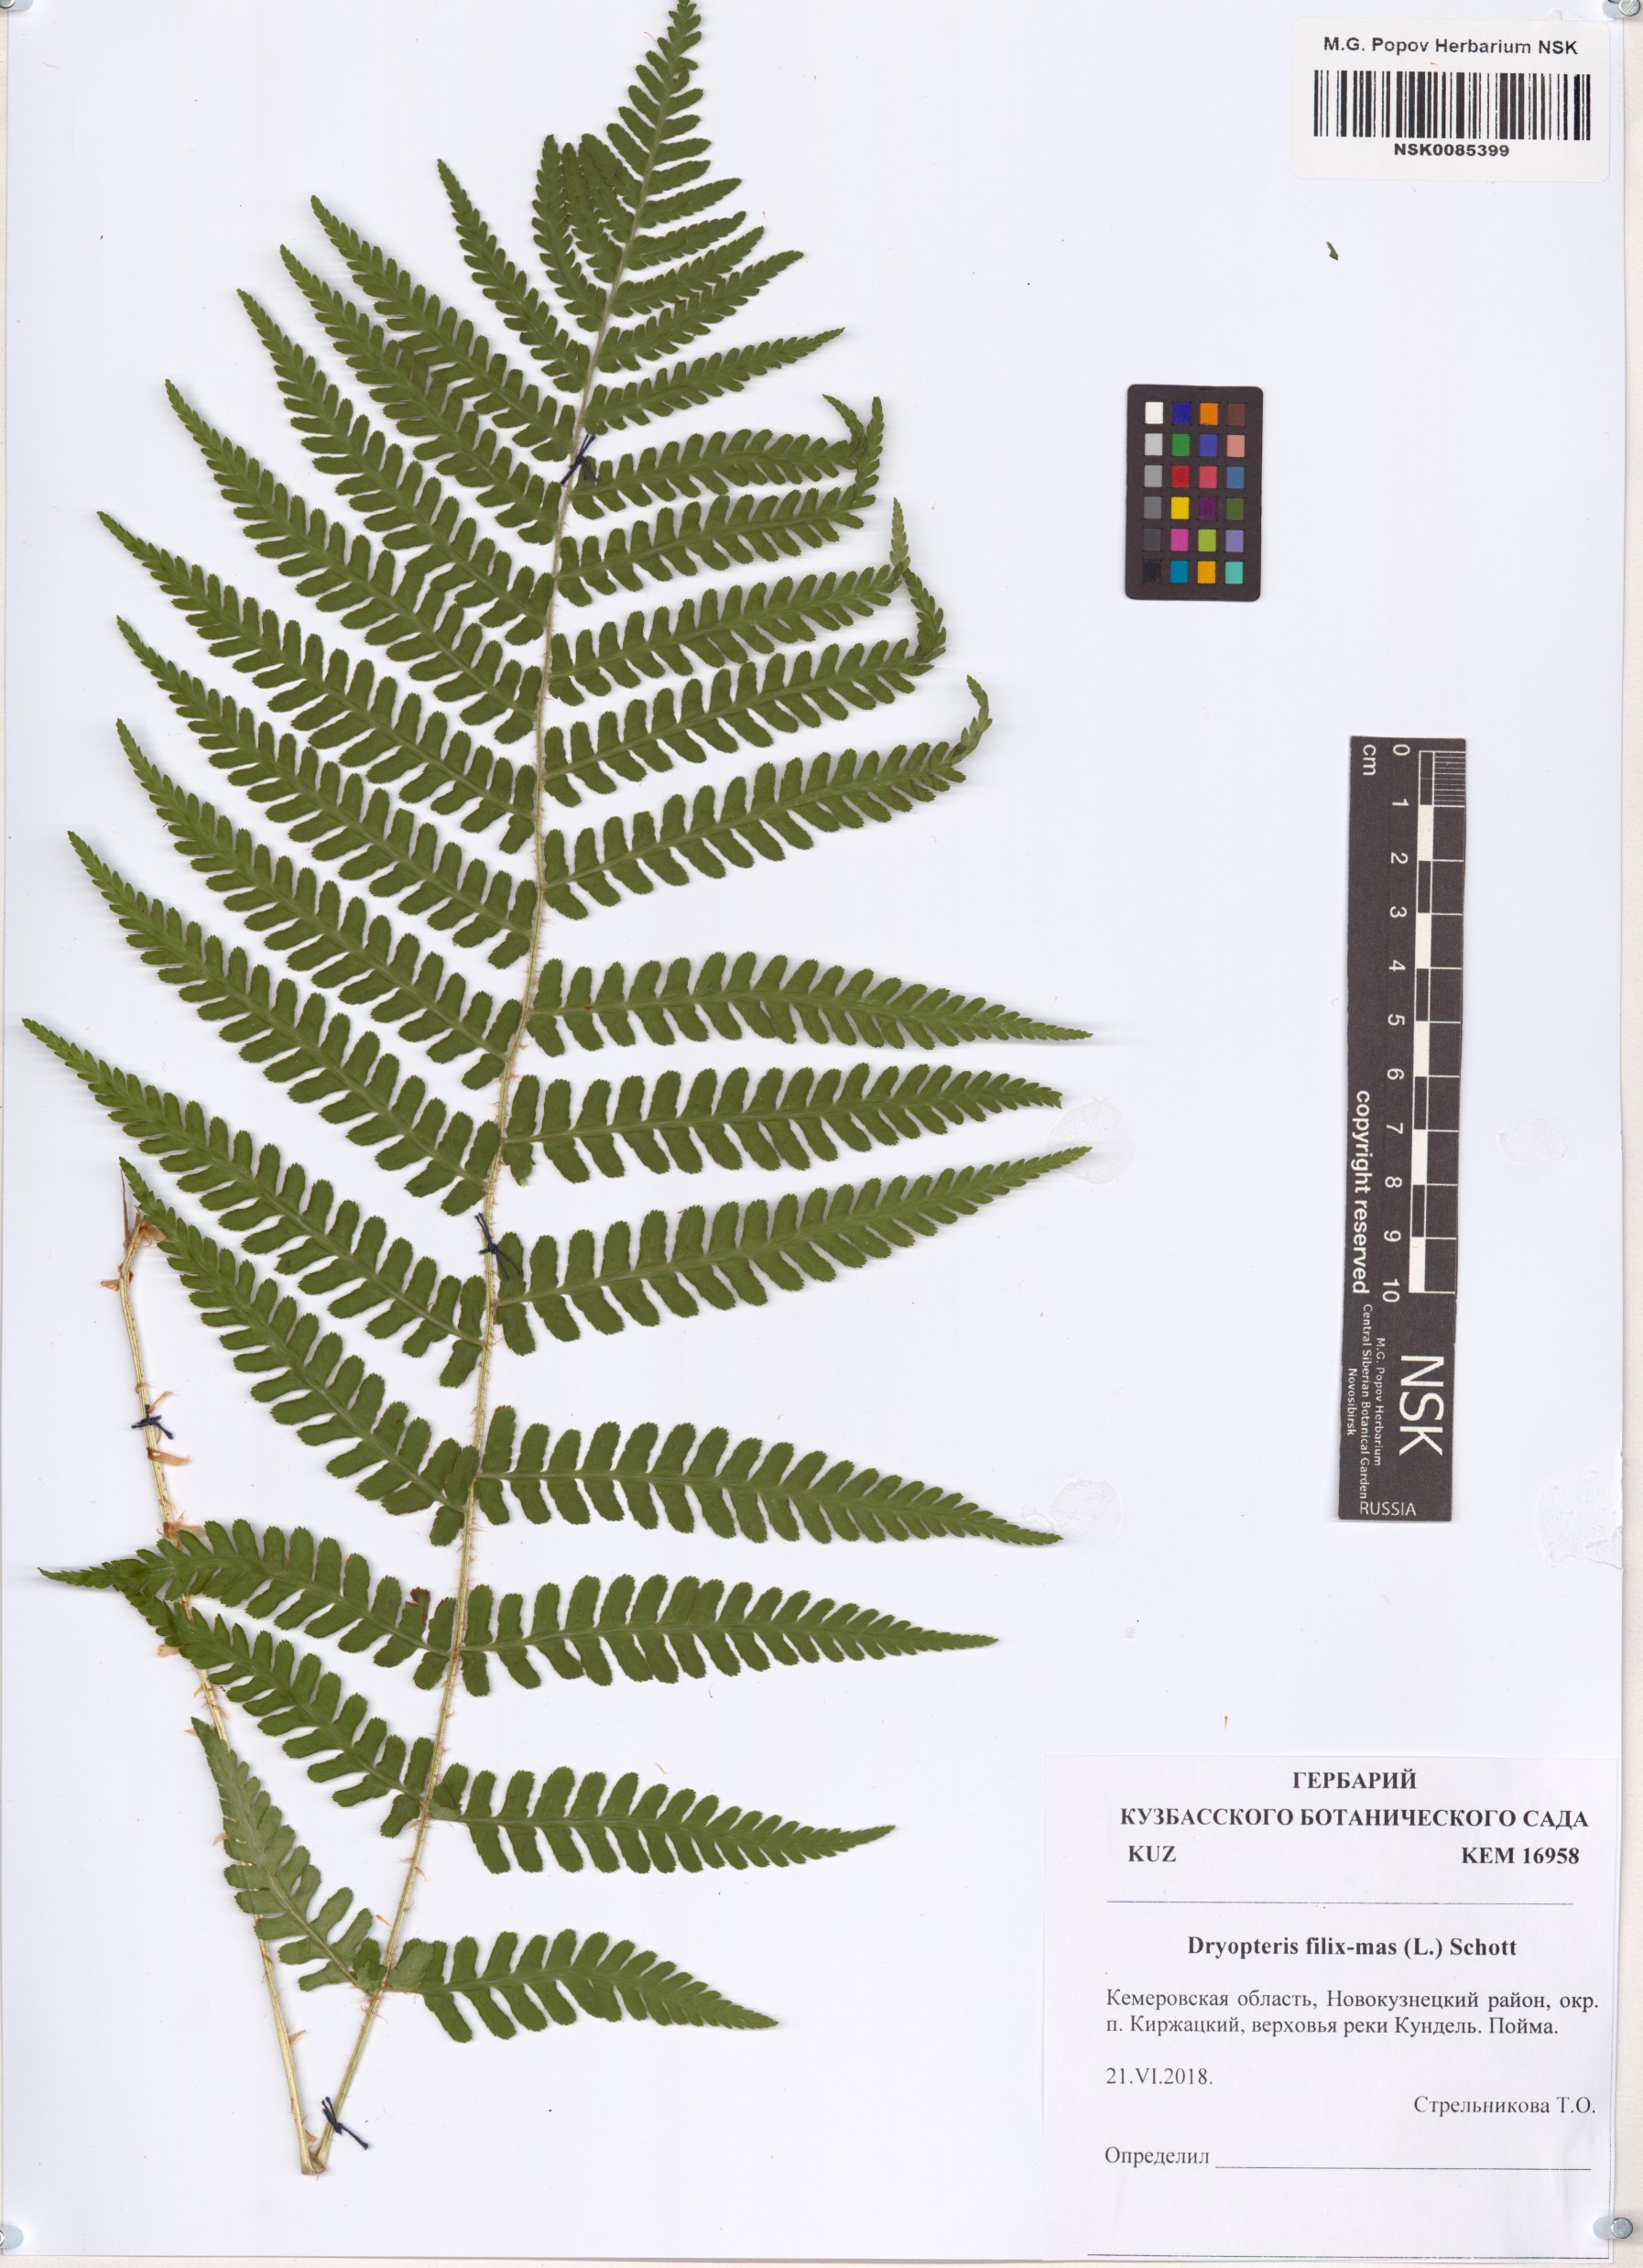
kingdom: Plantae
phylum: Tracheophyta
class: Polypodiopsida
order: Polypodiales
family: Dryopteridaceae
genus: Dryopteris
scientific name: Dryopteris filix-mas
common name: Male fern
